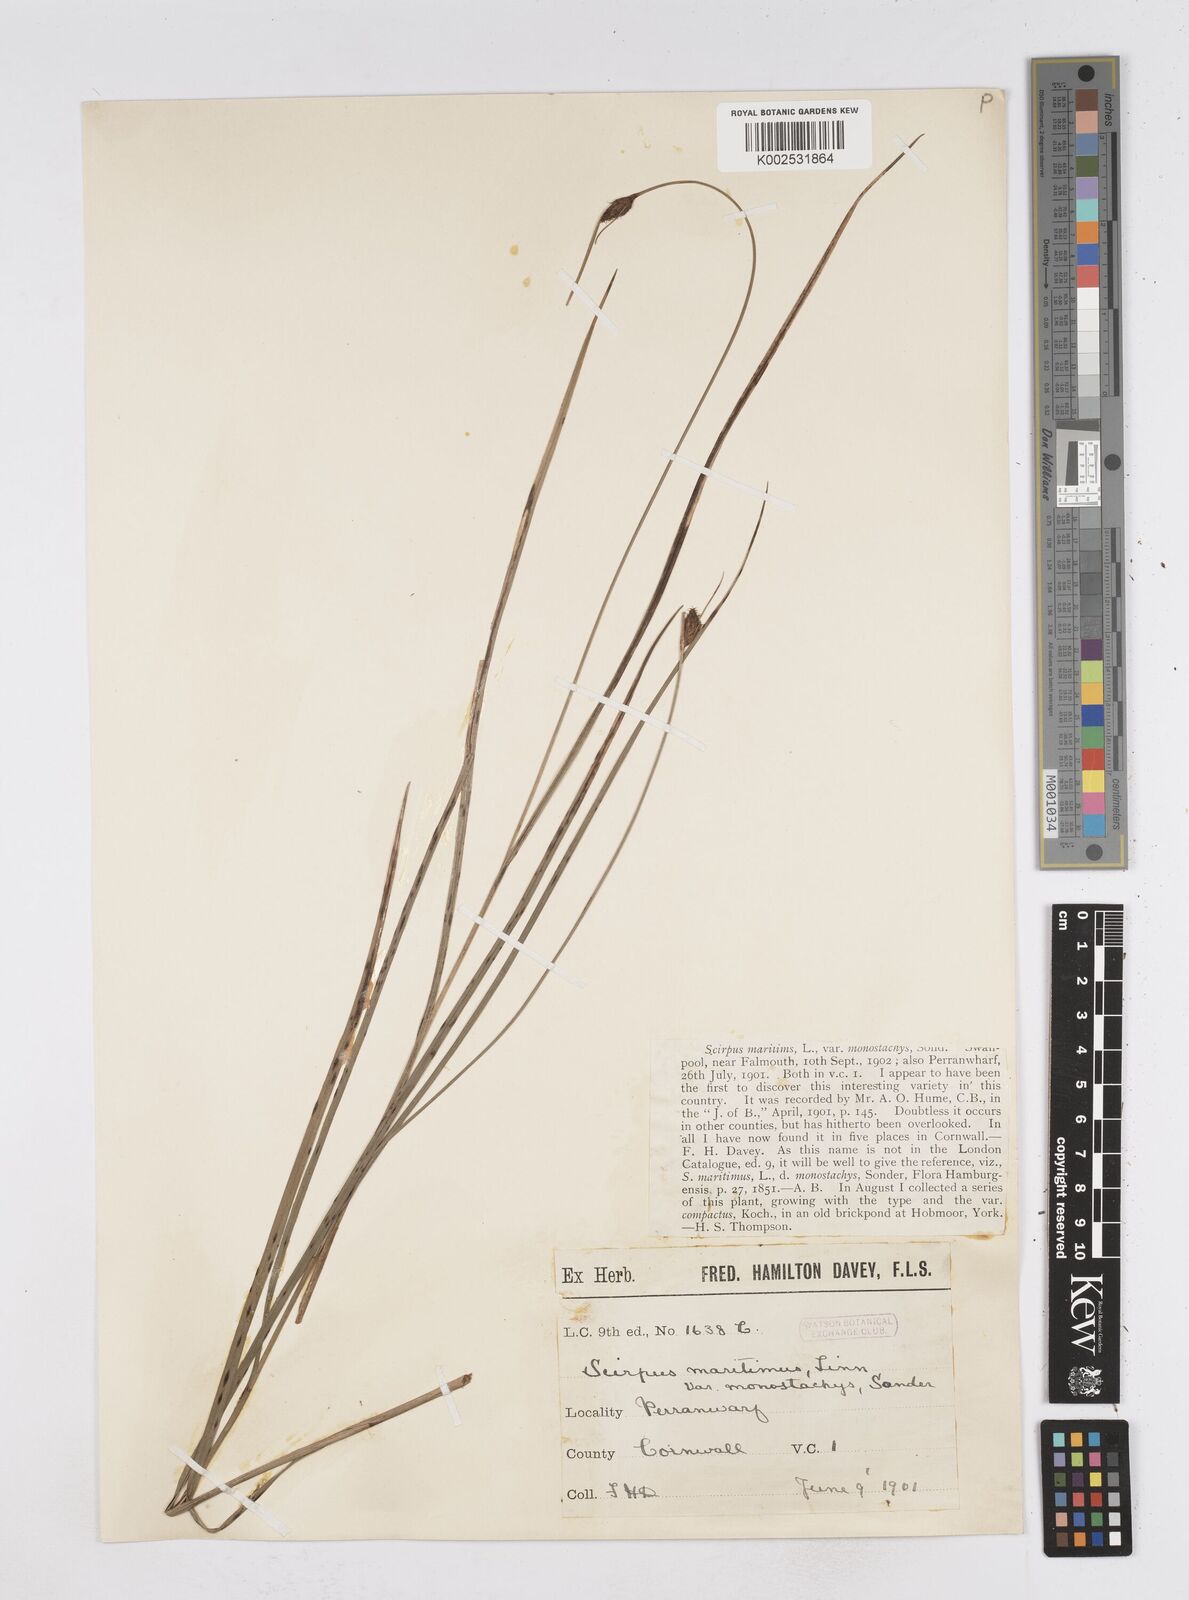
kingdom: Plantae
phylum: Tracheophyta
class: Liliopsida
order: Poales
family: Cyperaceae
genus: Bolboschoenus
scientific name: Bolboschoenus maritimus
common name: Sea club-rush
